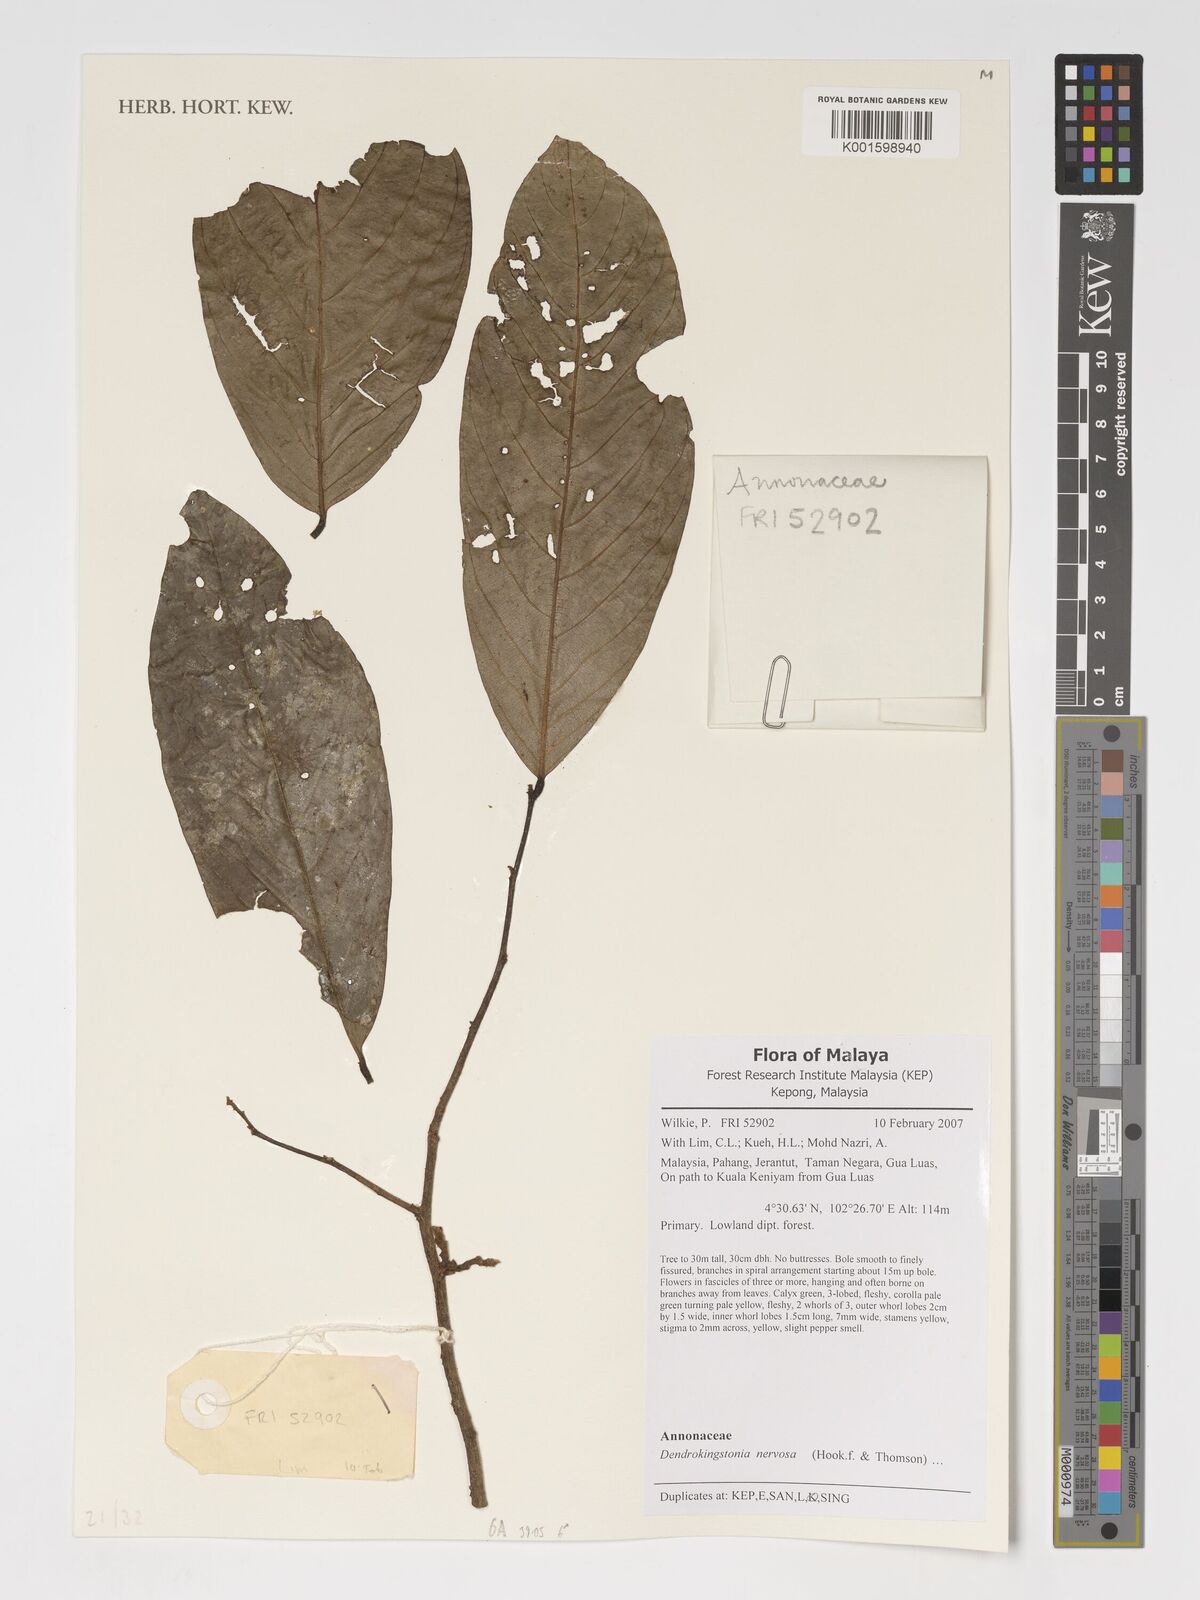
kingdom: Plantae
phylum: Tracheophyta
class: Magnoliopsida
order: Magnoliales
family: Annonaceae
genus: Dendrokingstonia
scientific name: Dendrokingstonia nervosa
